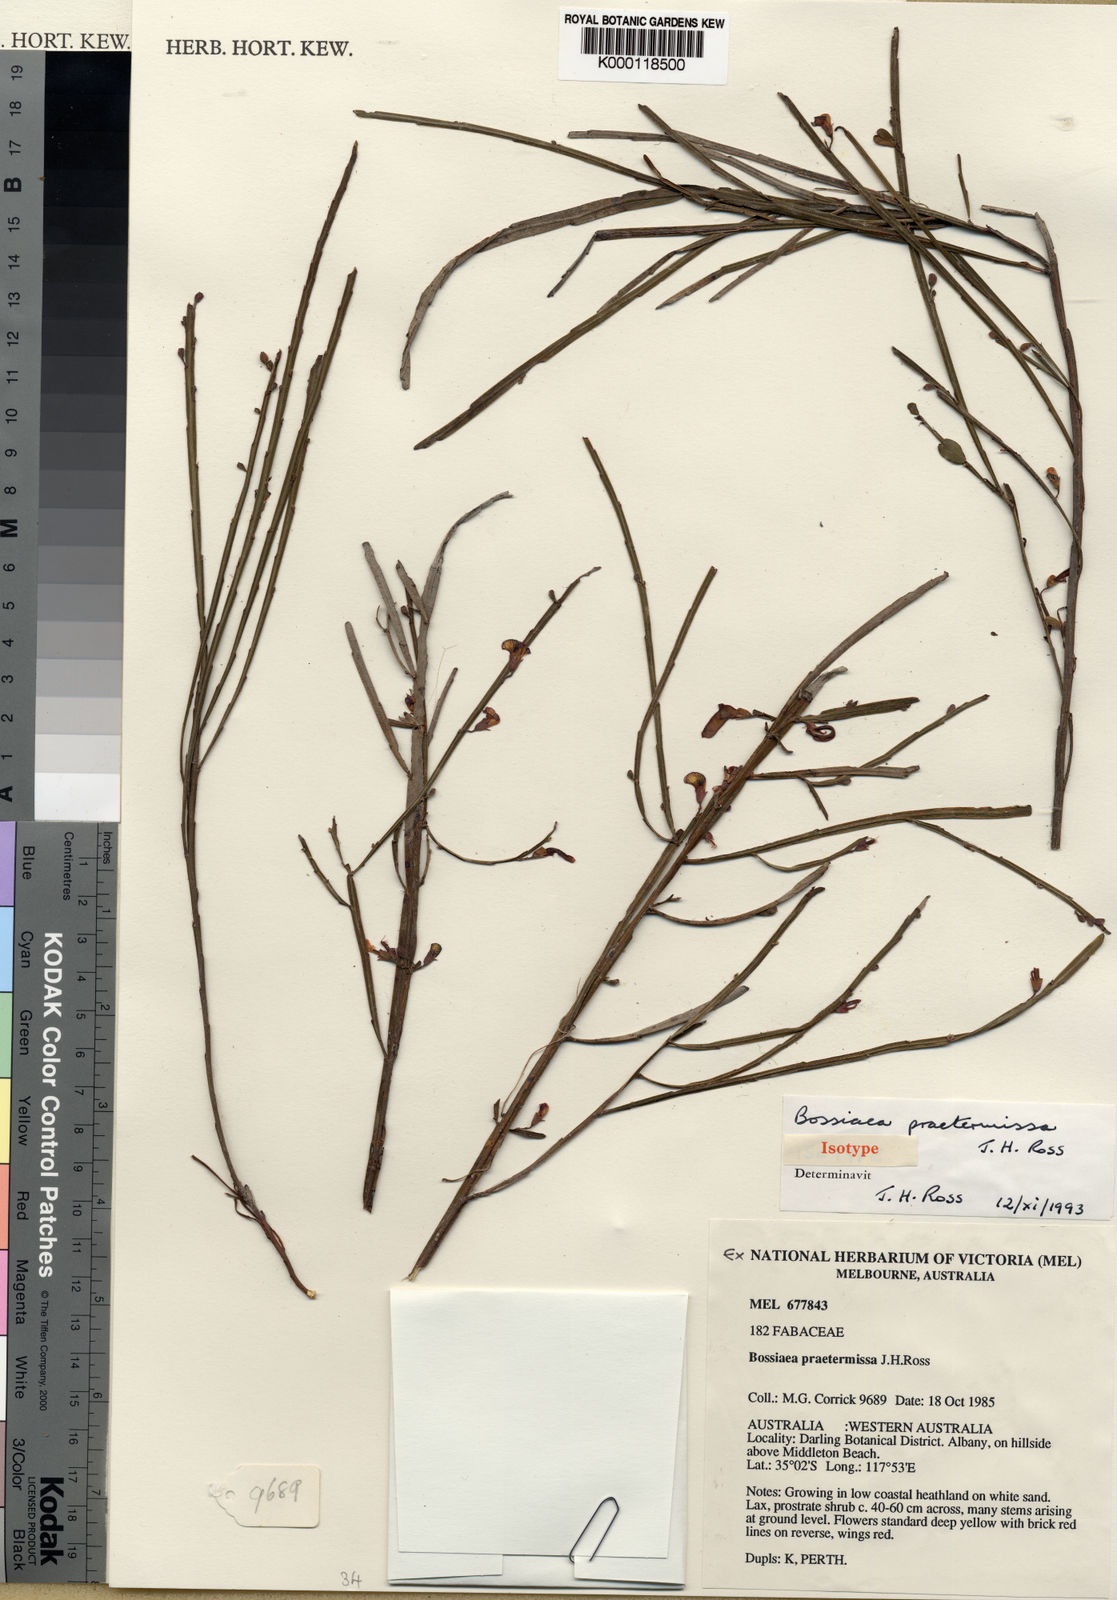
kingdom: Plantae
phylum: Tracheophyta
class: Magnoliopsida
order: Fabales
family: Fabaceae
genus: Bossiaea
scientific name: Bossiaea praetermissa
